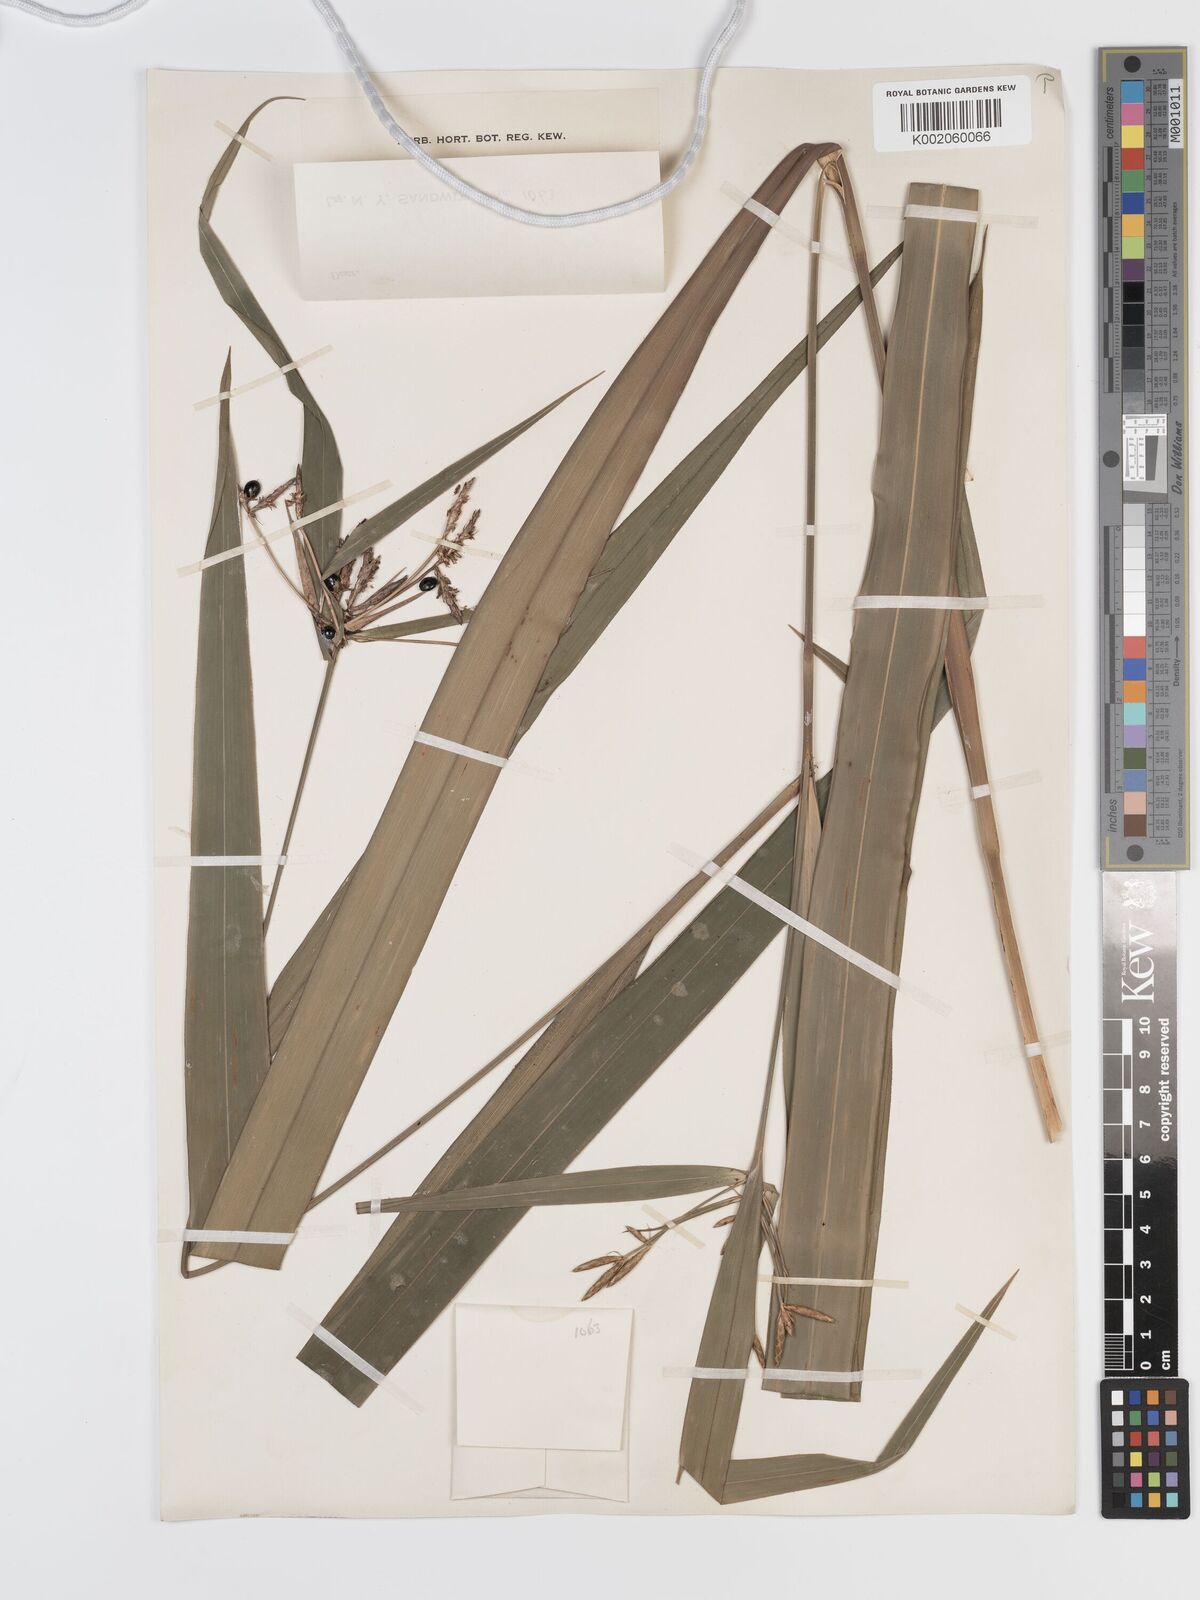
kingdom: Plantae
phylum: Tracheophyta
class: Liliopsida
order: Poales
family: Cyperaceae
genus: Diplasia
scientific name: Diplasia karatifolia
